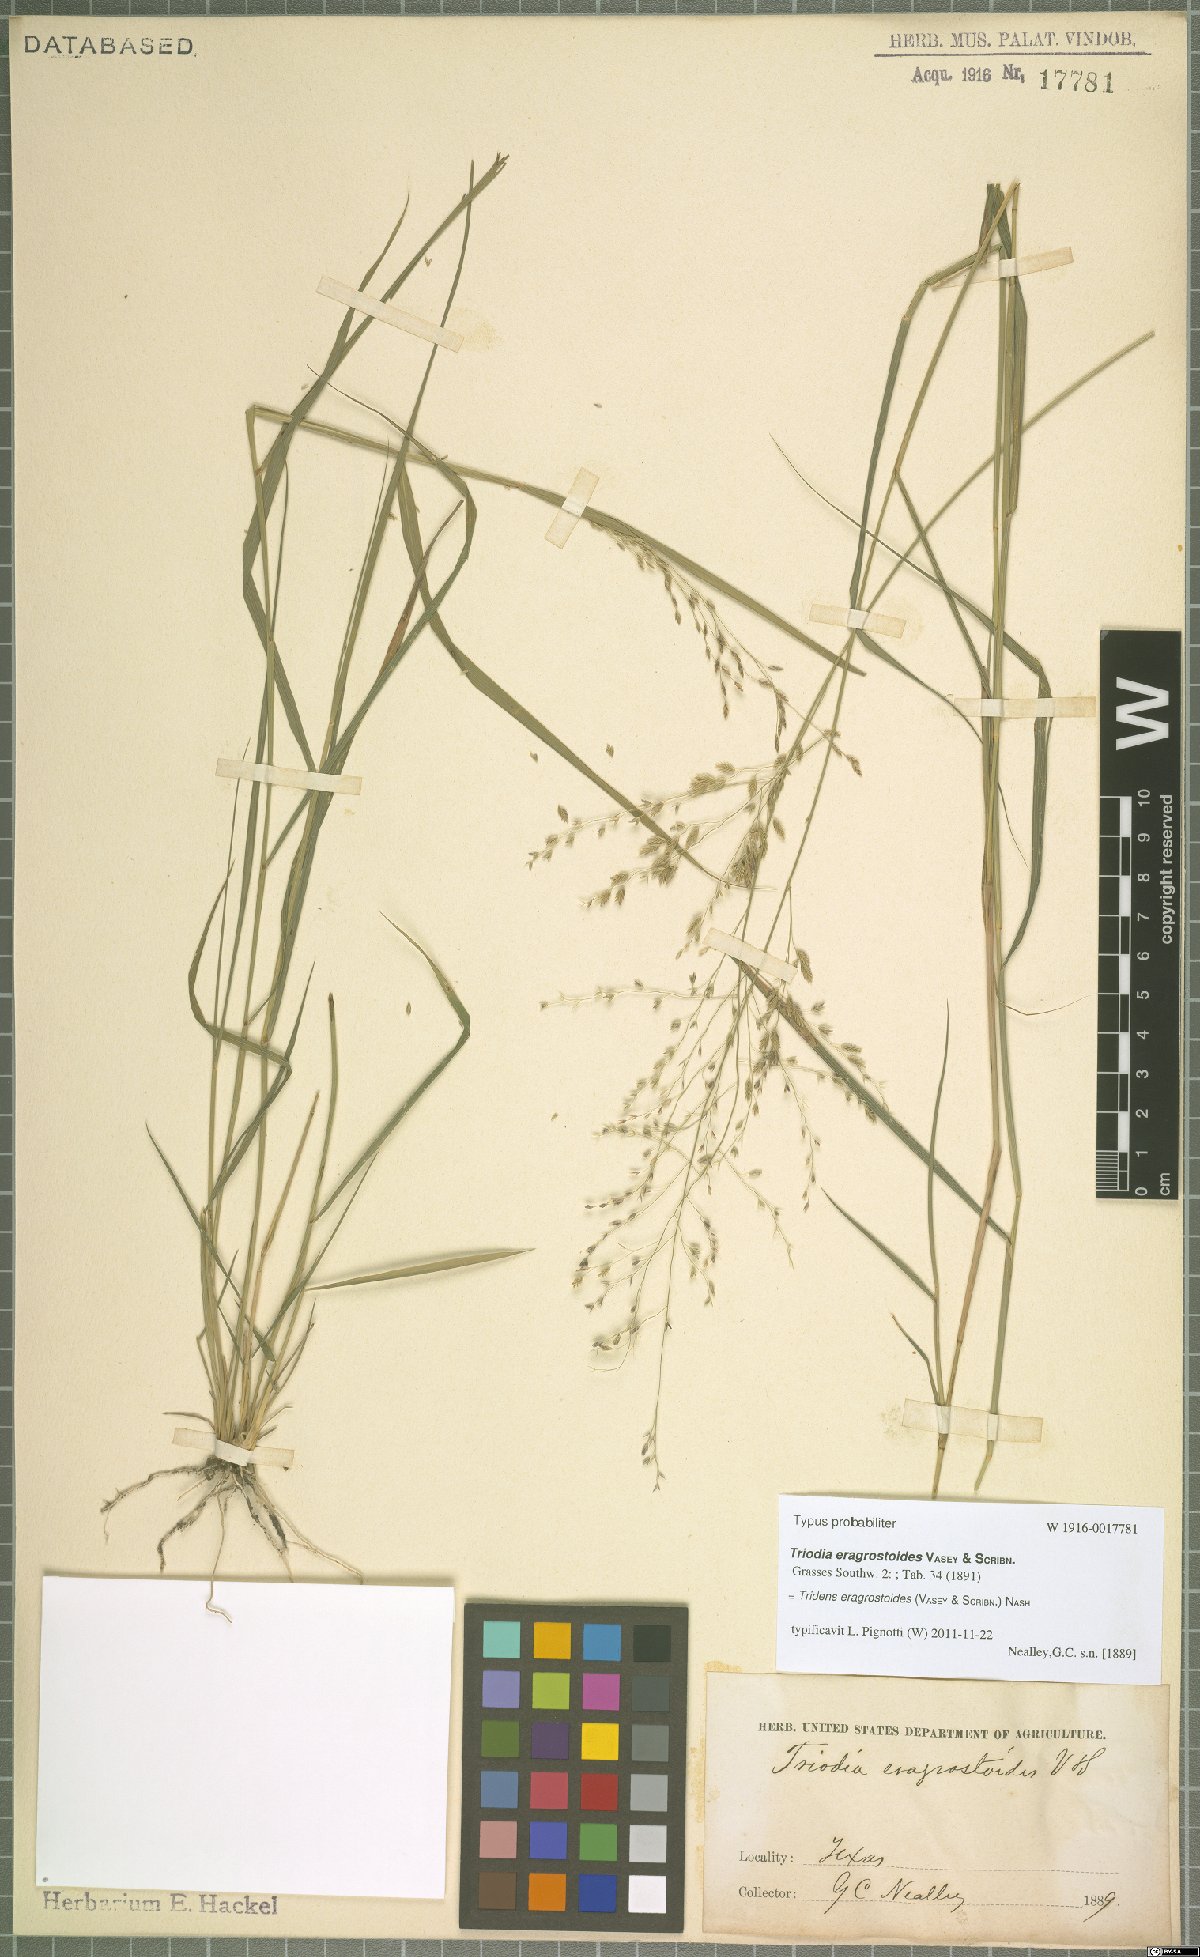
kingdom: Plantae
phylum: Tracheophyta
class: Liliopsida
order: Poales
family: Poaceae
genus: Triplasiella
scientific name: Triplasiella eragrostoides
